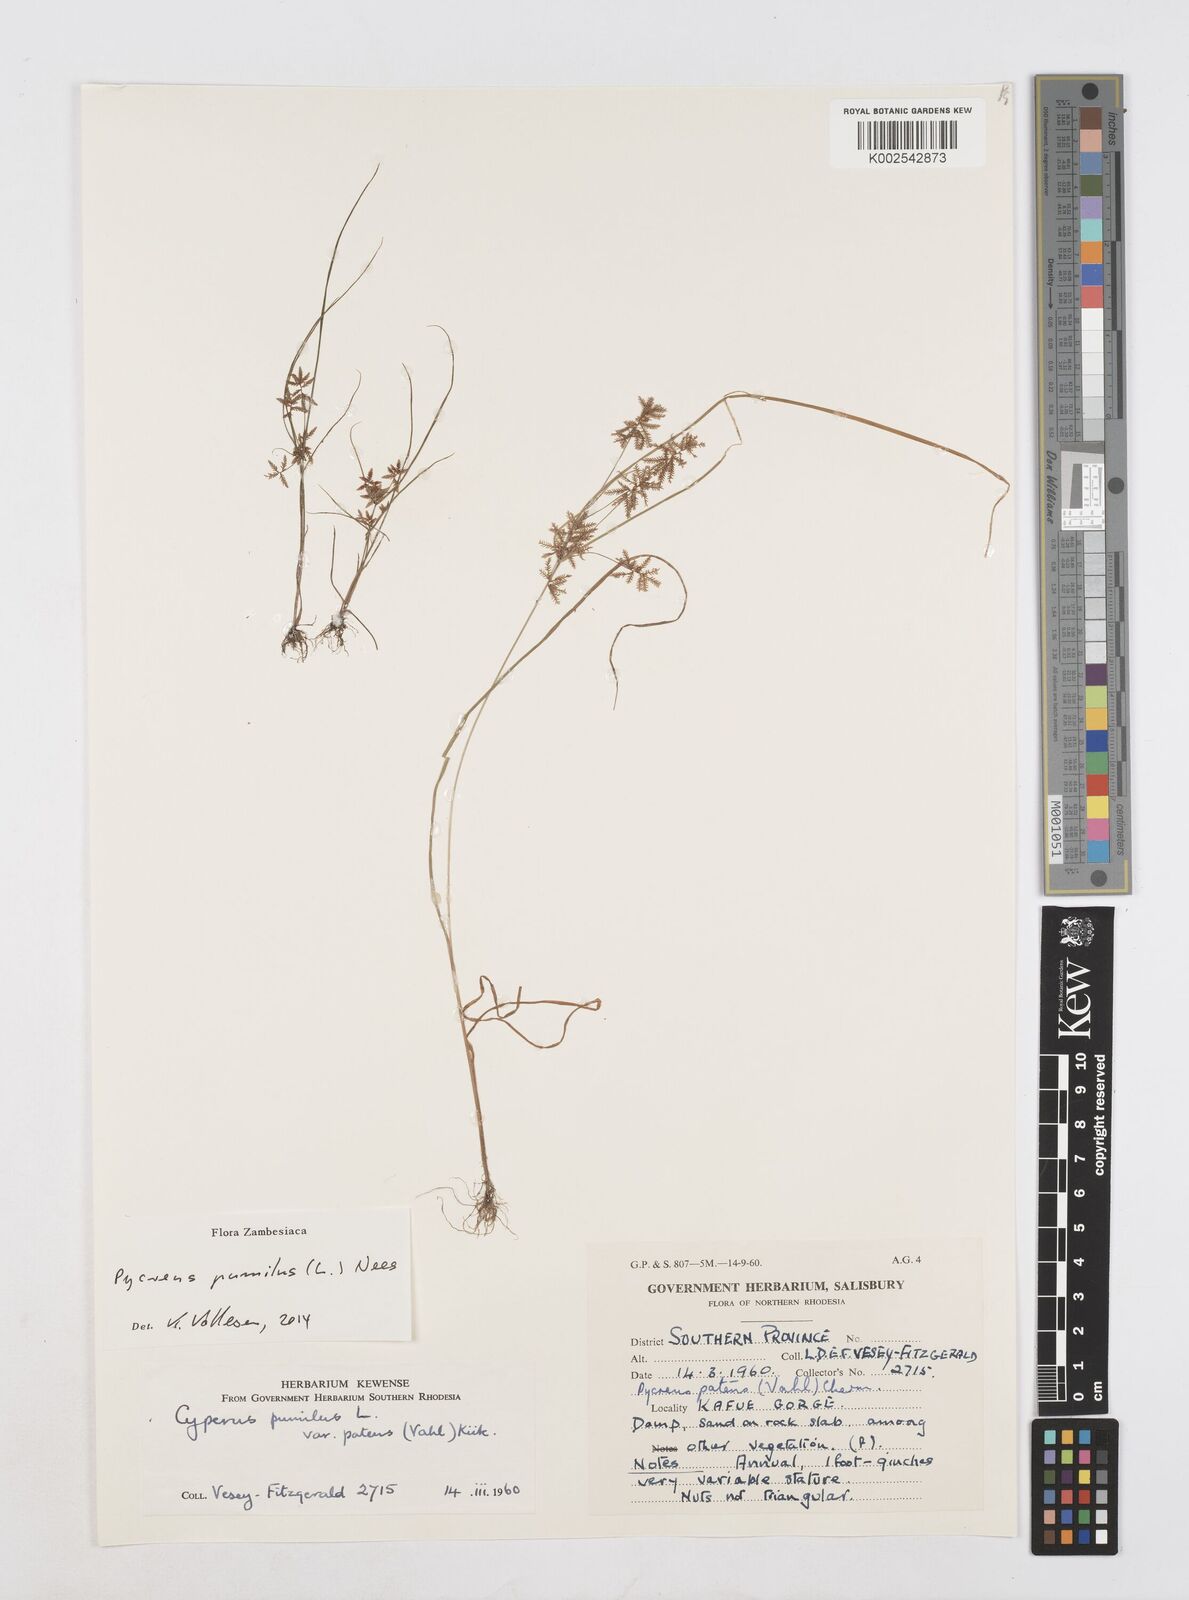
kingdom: Plantae
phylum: Tracheophyta
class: Liliopsida
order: Poales
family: Cyperaceae
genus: Cyperus
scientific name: Cyperus pumilus
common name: Low flatsedge
